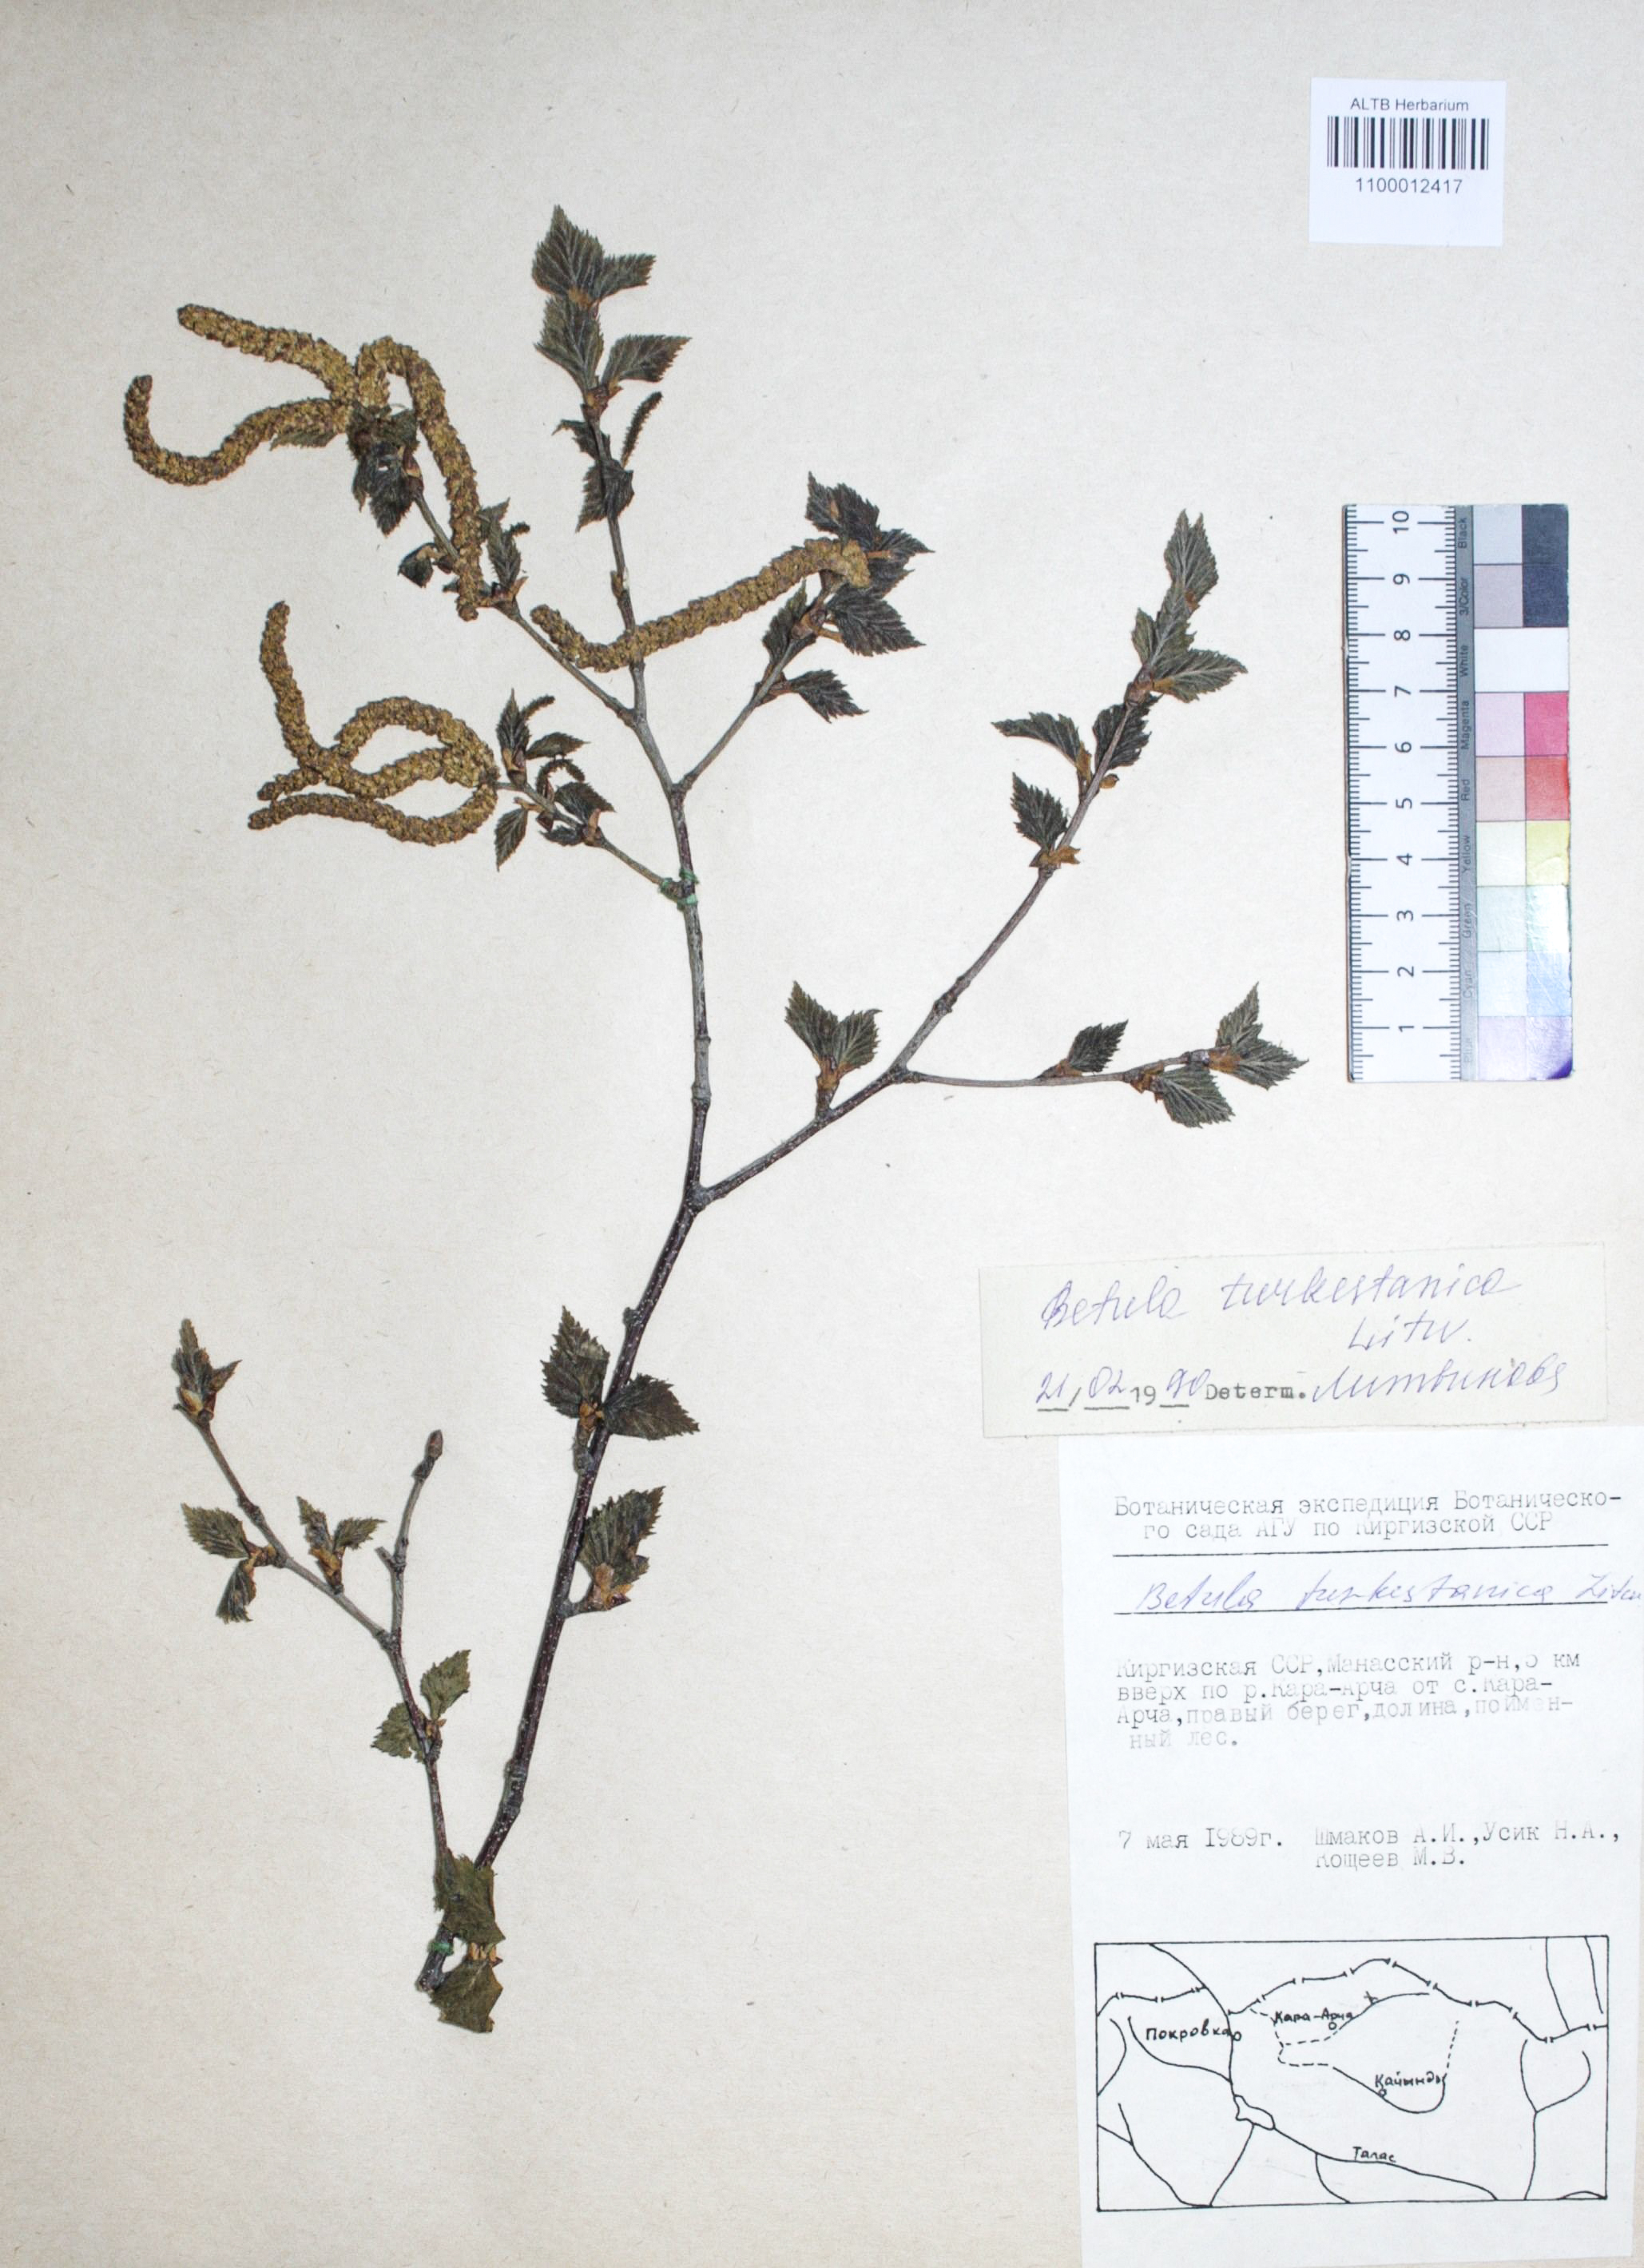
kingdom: Plantae
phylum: Tracheophyta
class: Magnoliopsida
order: Fagales
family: Betulaceae
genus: Betula
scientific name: Betula tianschanica
